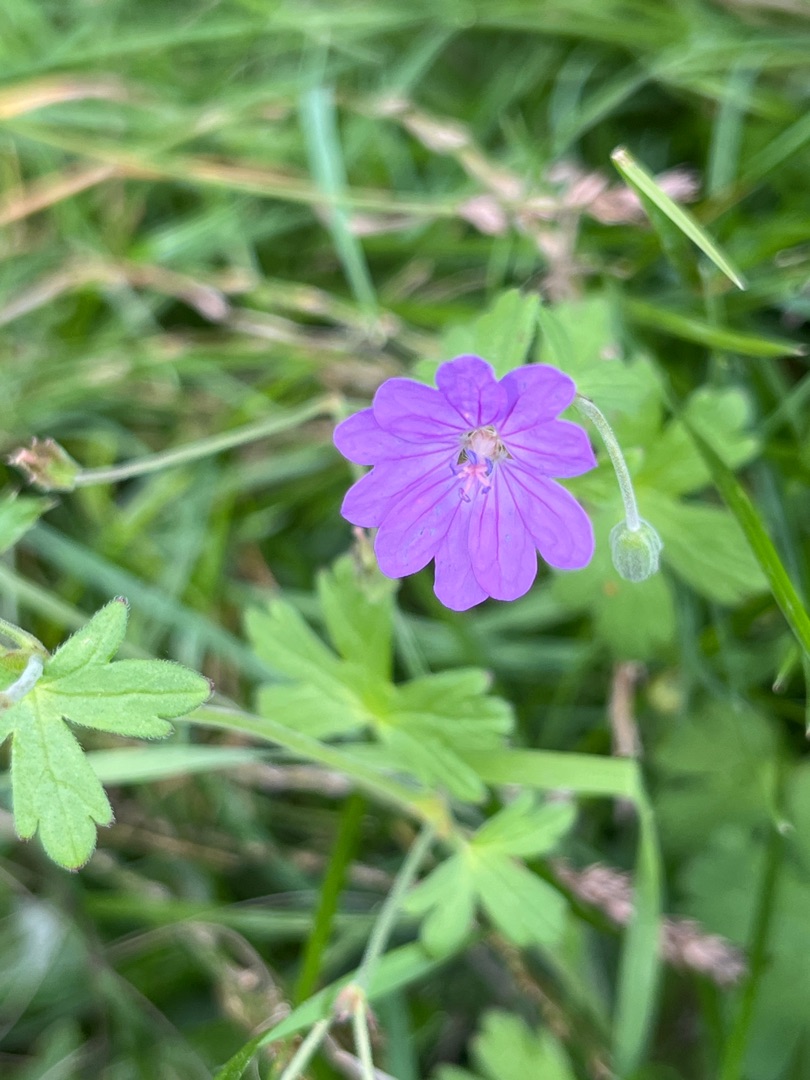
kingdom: Plantae
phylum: Tracheophyta
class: Magnoliopsida
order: Geraniales
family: Geraniaceae
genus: Geranium
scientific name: Geranium pyrenaicum
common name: Pyrenæisk storkenæb
